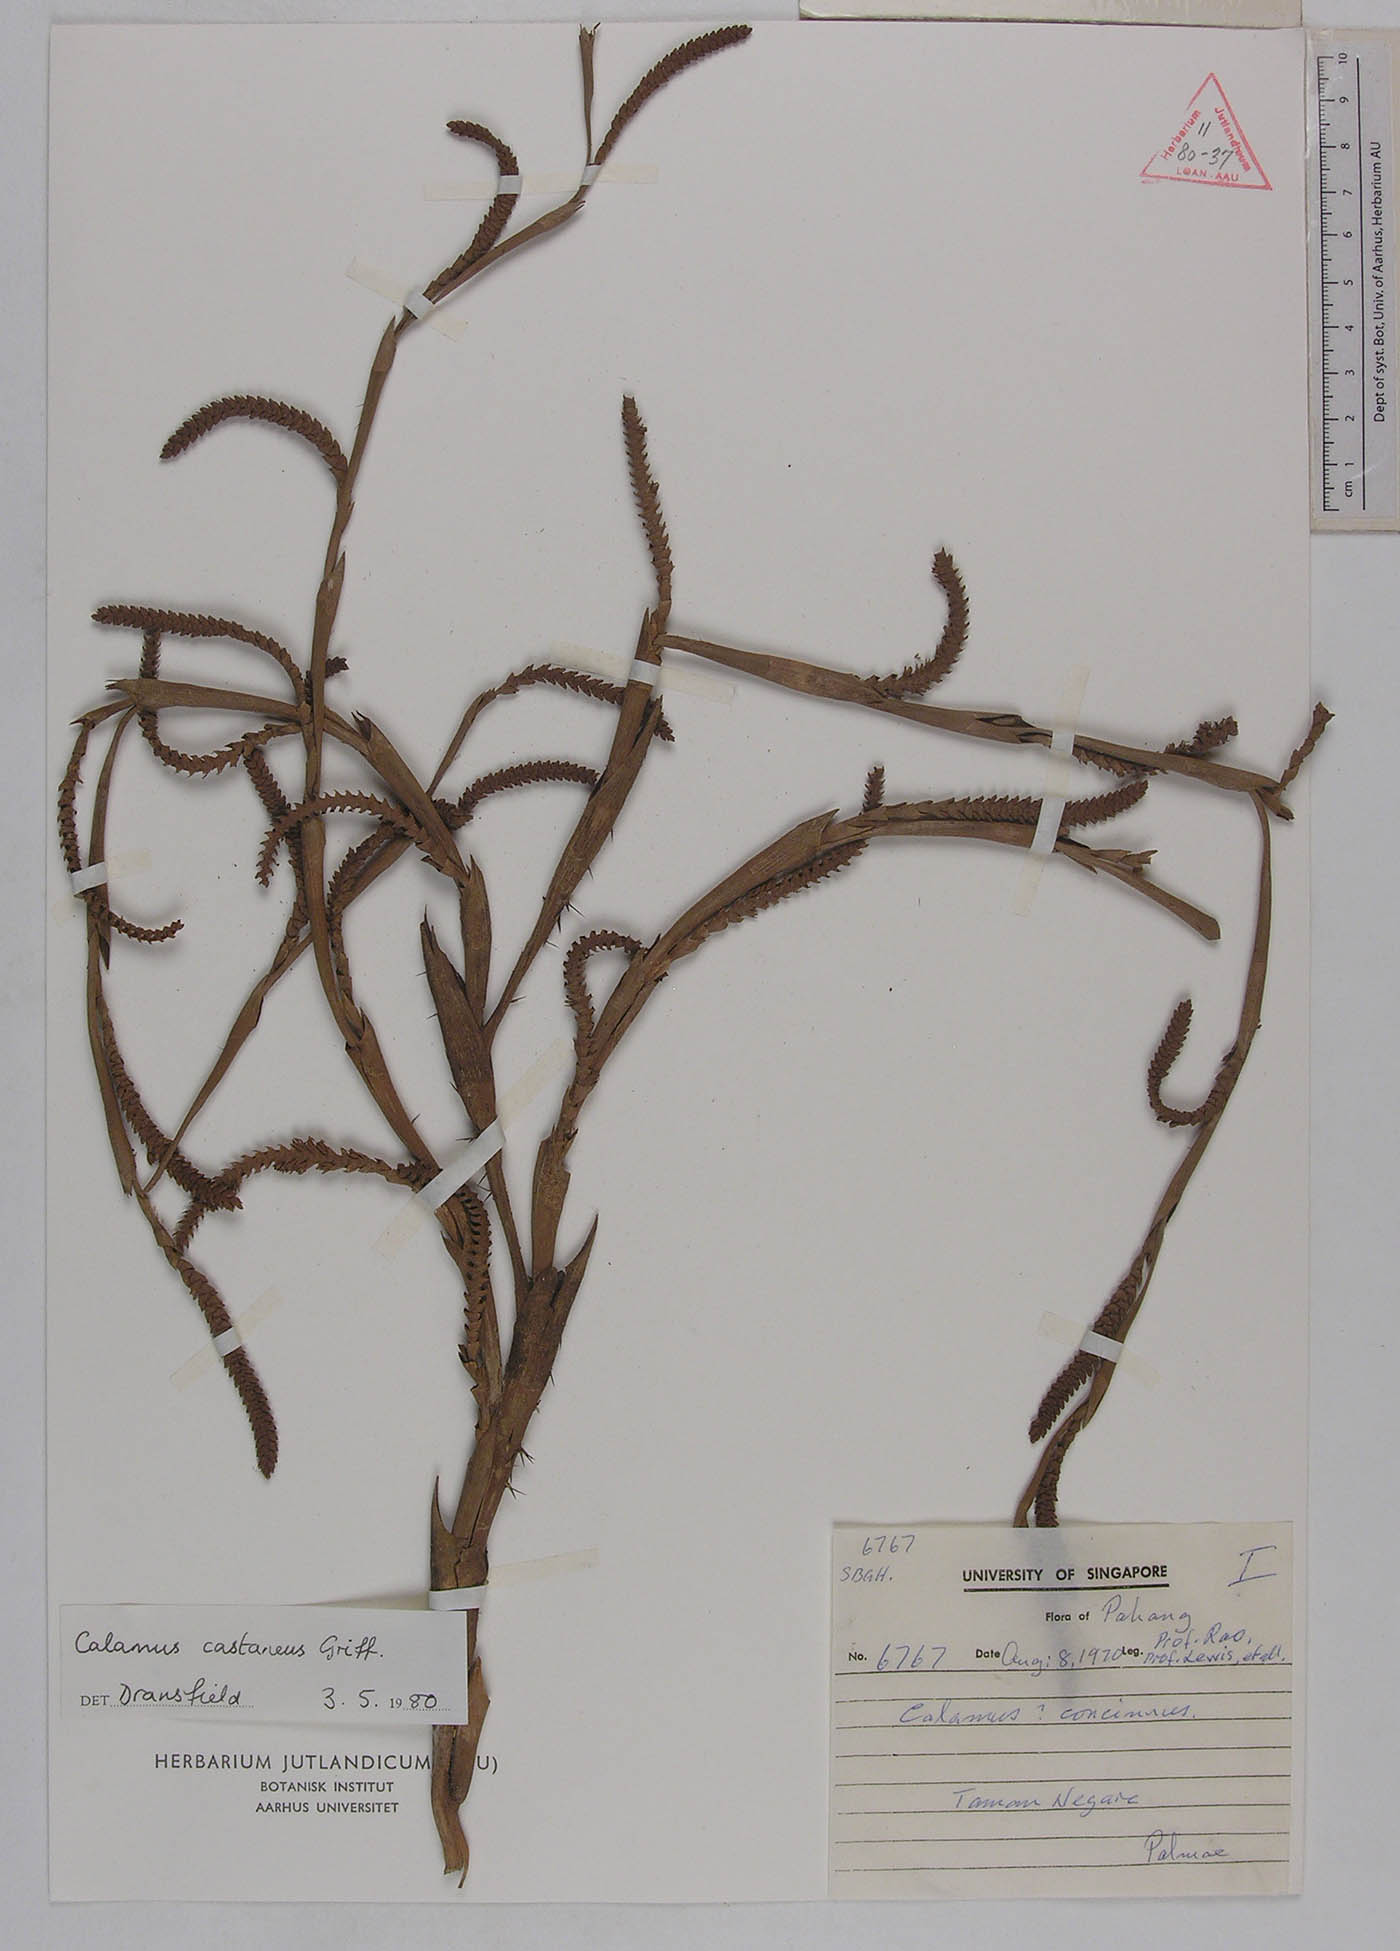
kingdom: Plantae
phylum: Tracheophyta
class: Liliopsida
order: Arecales
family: Arecaceae
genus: Calamus
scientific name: Calamus castaneus
